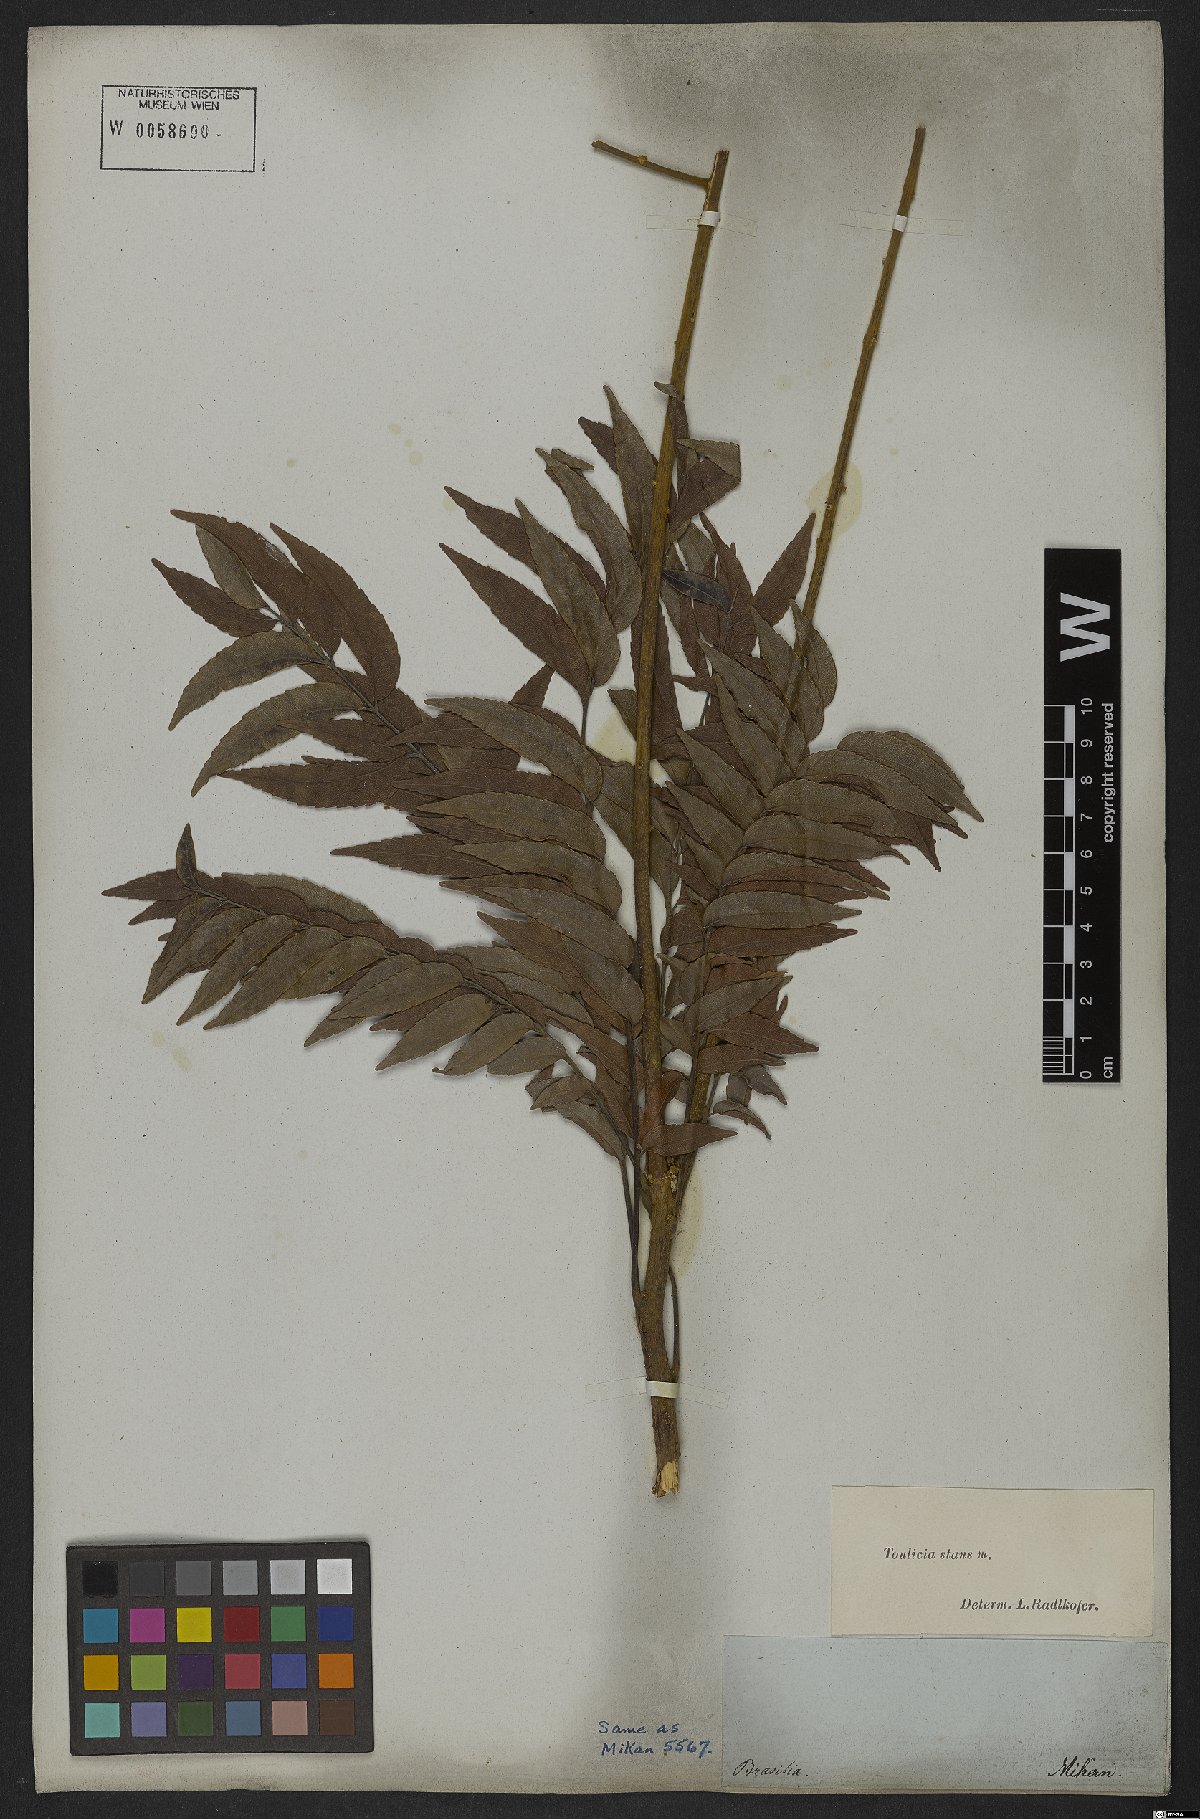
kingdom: Plantae
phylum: Tracheophyta
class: Magnoliopsida
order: Sapindales
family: Sapindaceae
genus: Toulicia
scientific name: Toulicia stans
